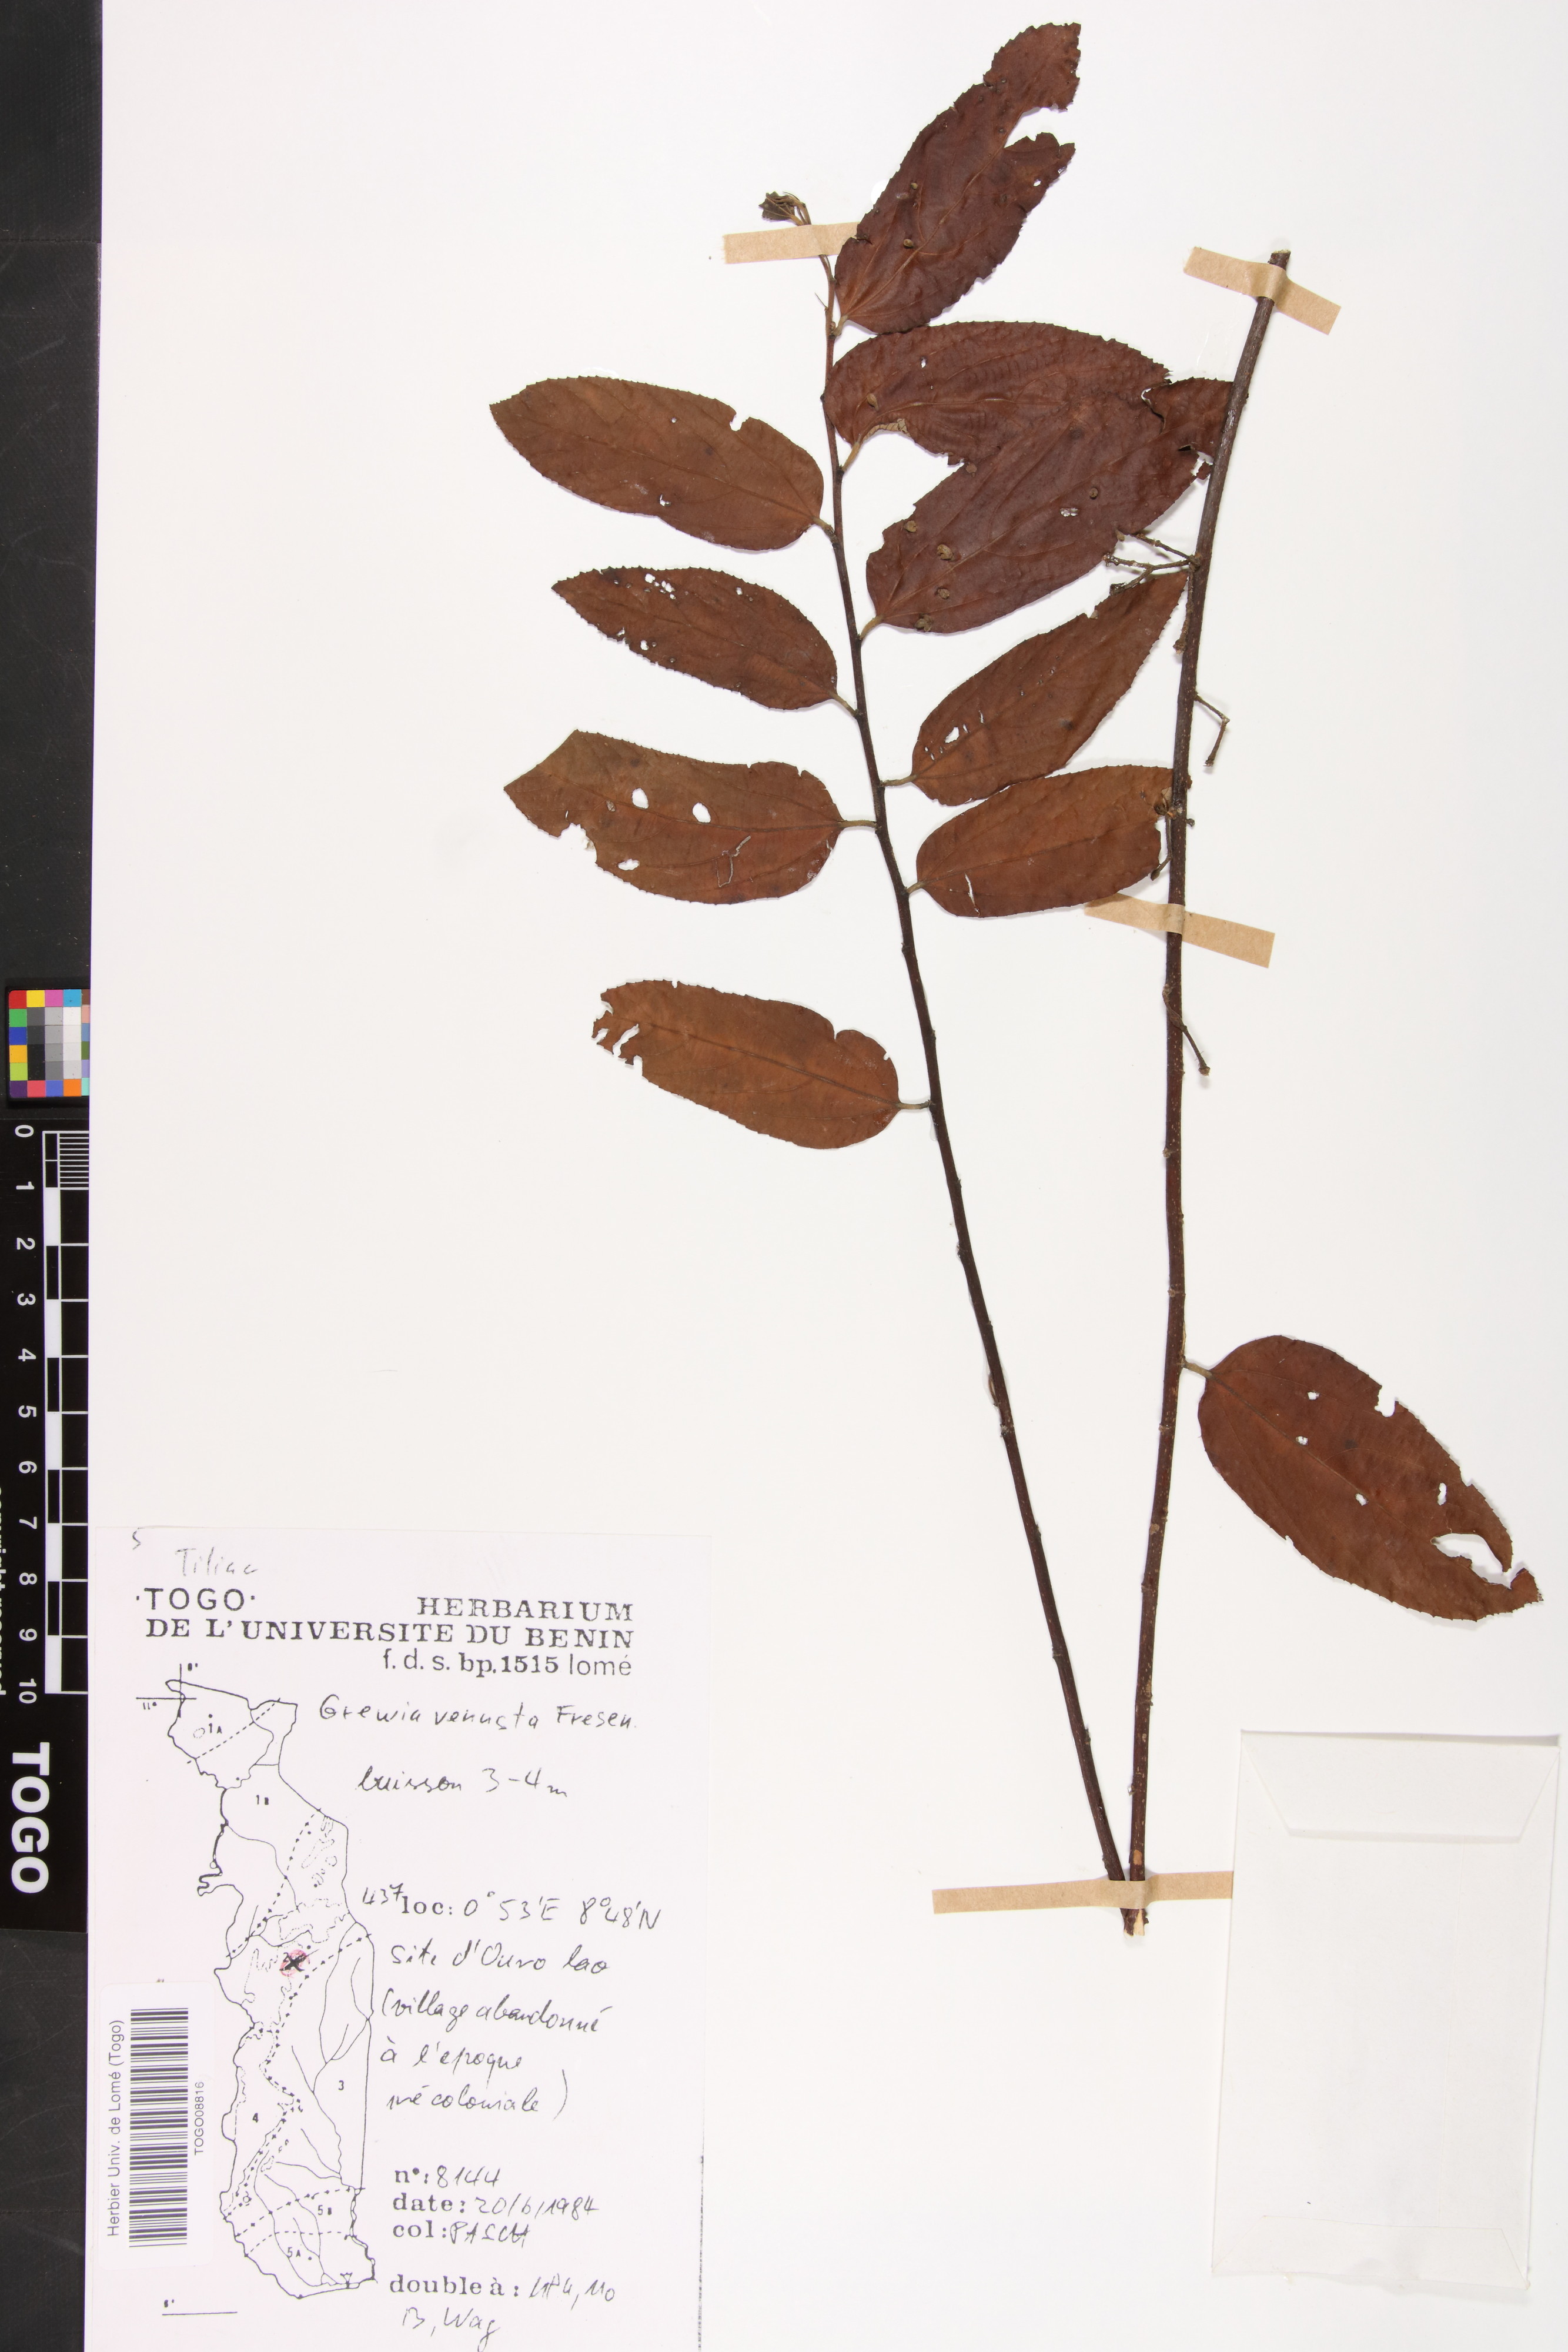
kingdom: Plantae
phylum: Tracheophyta
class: Magnoliopsida
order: Malvales
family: Malvaceae
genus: Grewia
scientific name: Grewia mollis
